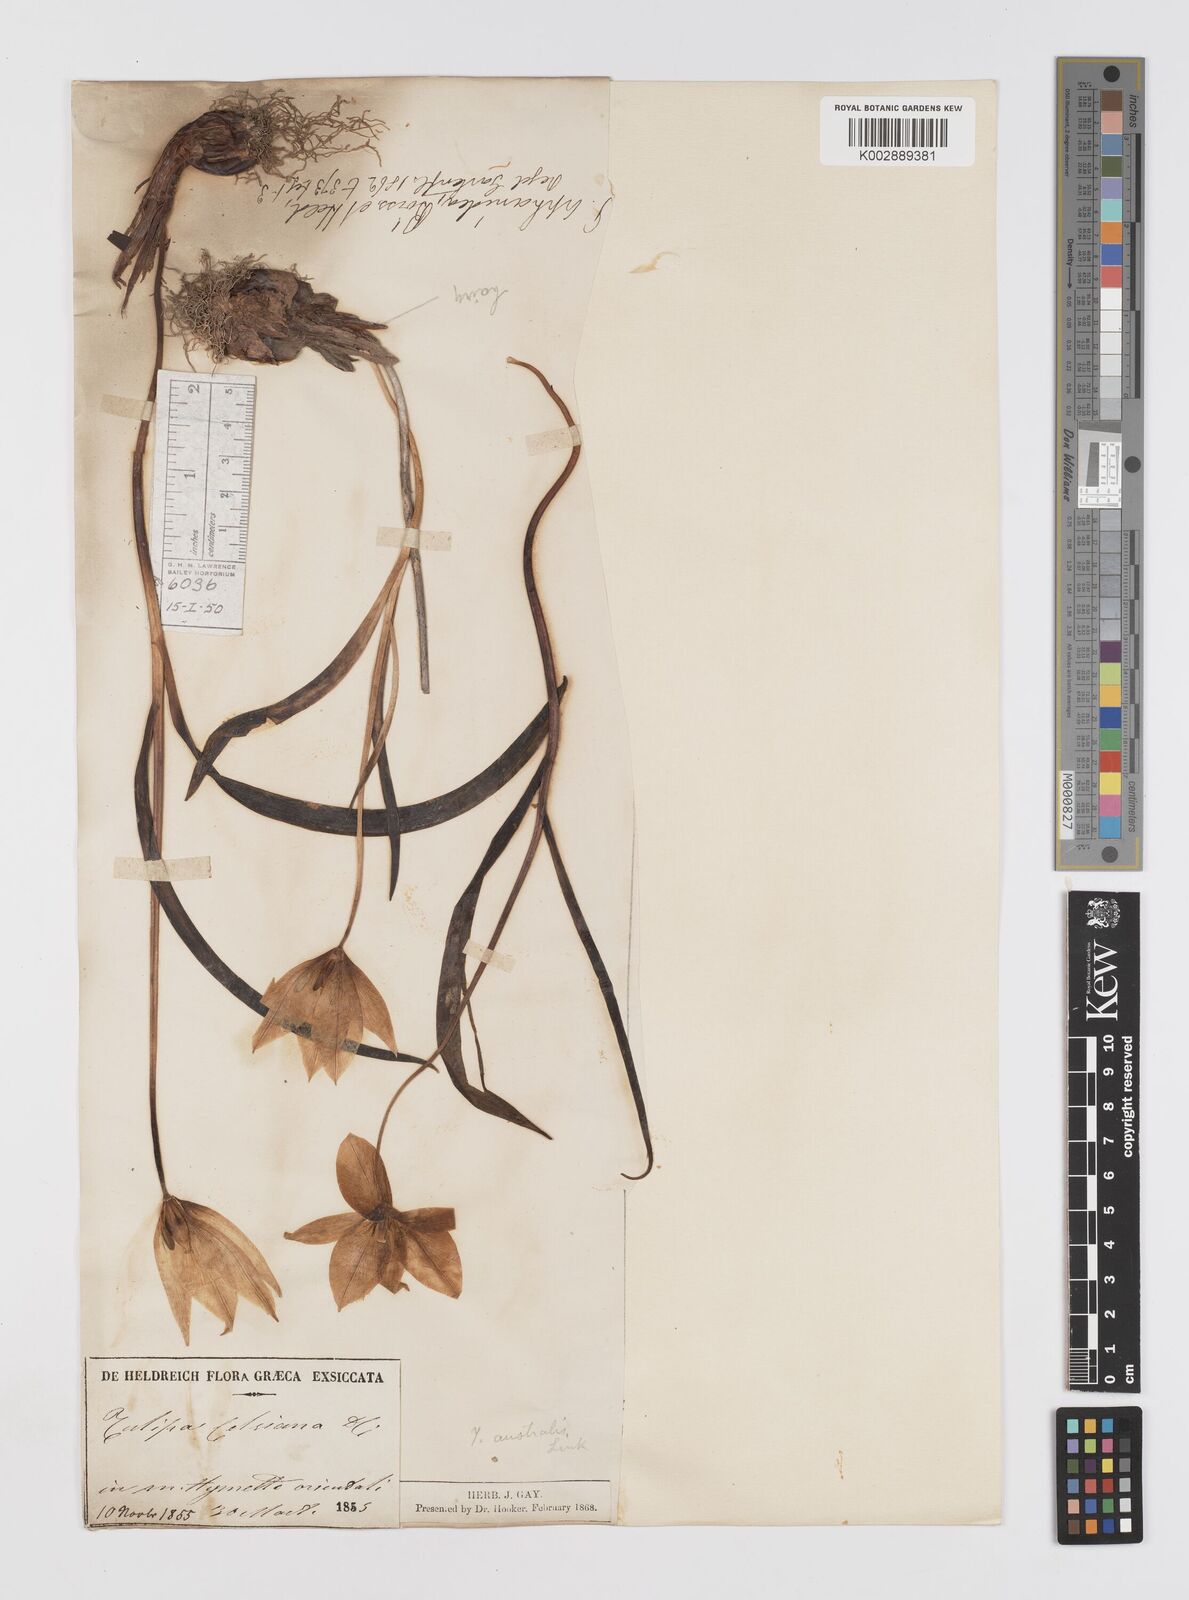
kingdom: Plantae
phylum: Tracheophyta
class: Liliopsida
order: Liliales
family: Liliaceae
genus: Tulipa
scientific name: Tulipa sylvestris
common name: Wild tulip
